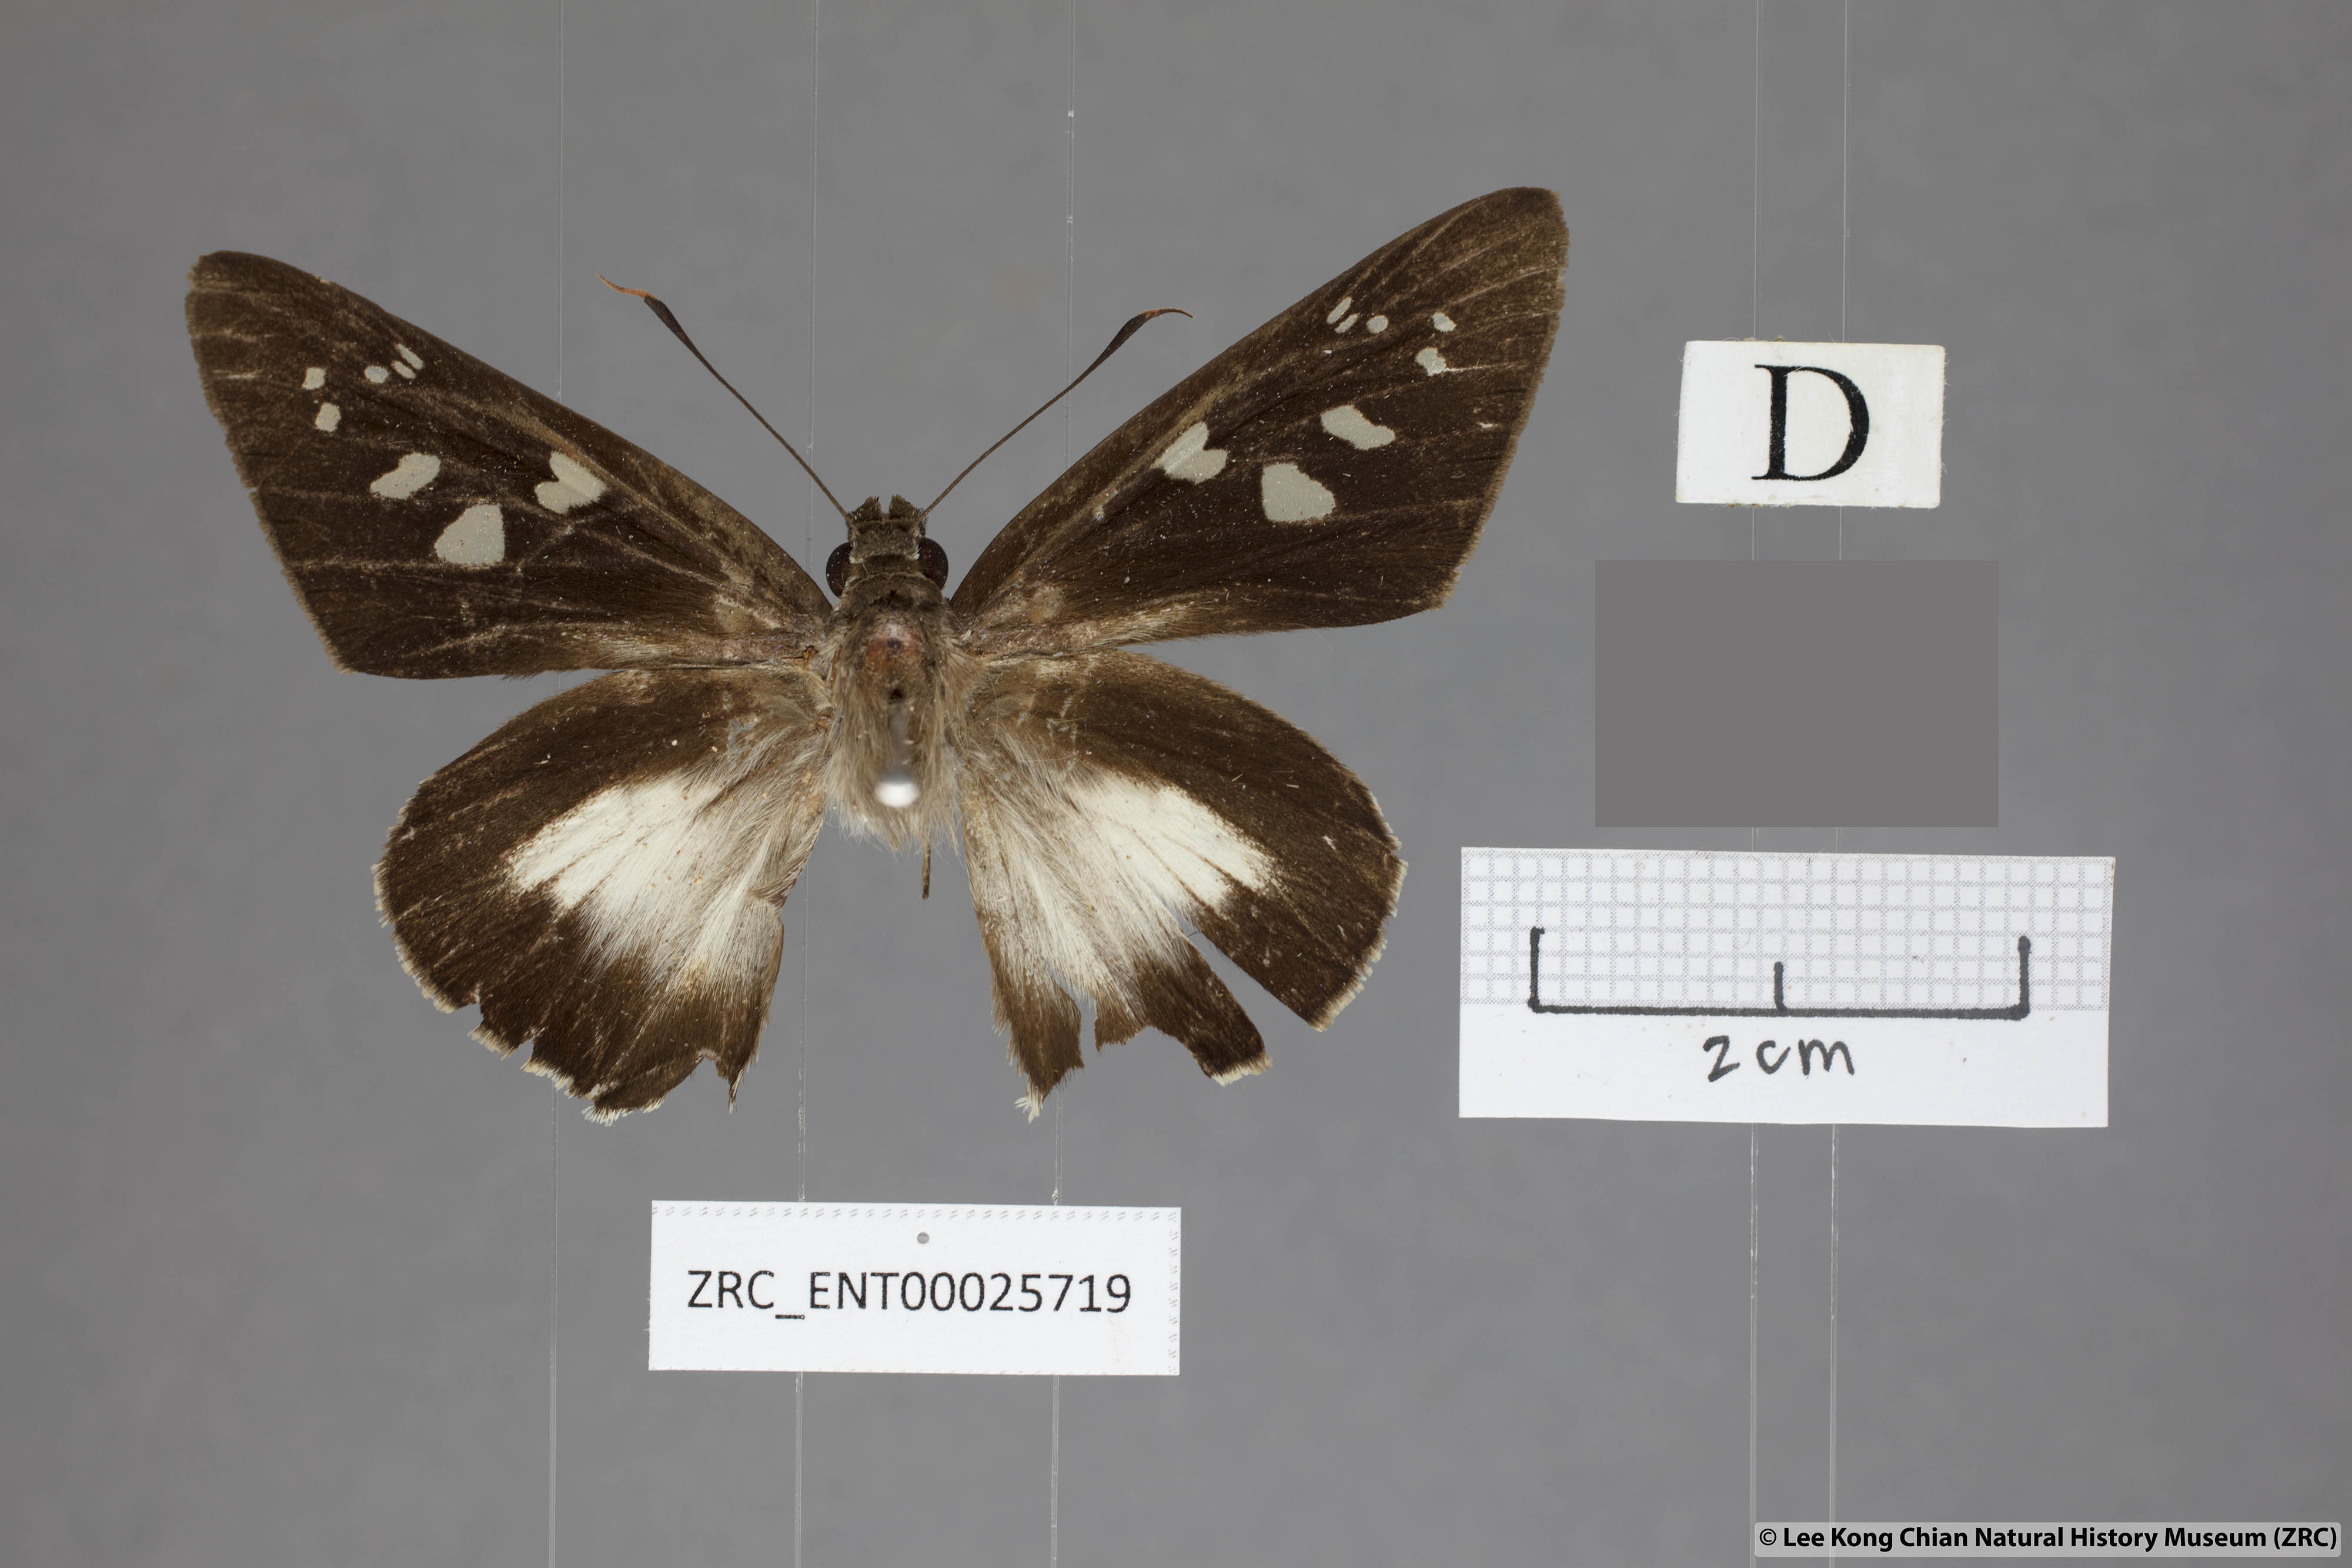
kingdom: Animalia
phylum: Arthropoda
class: Insecta
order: Lepidoptera
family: Hesperiidae
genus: Unkana
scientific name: Unkana mytheca
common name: Silver and yellow palmer
